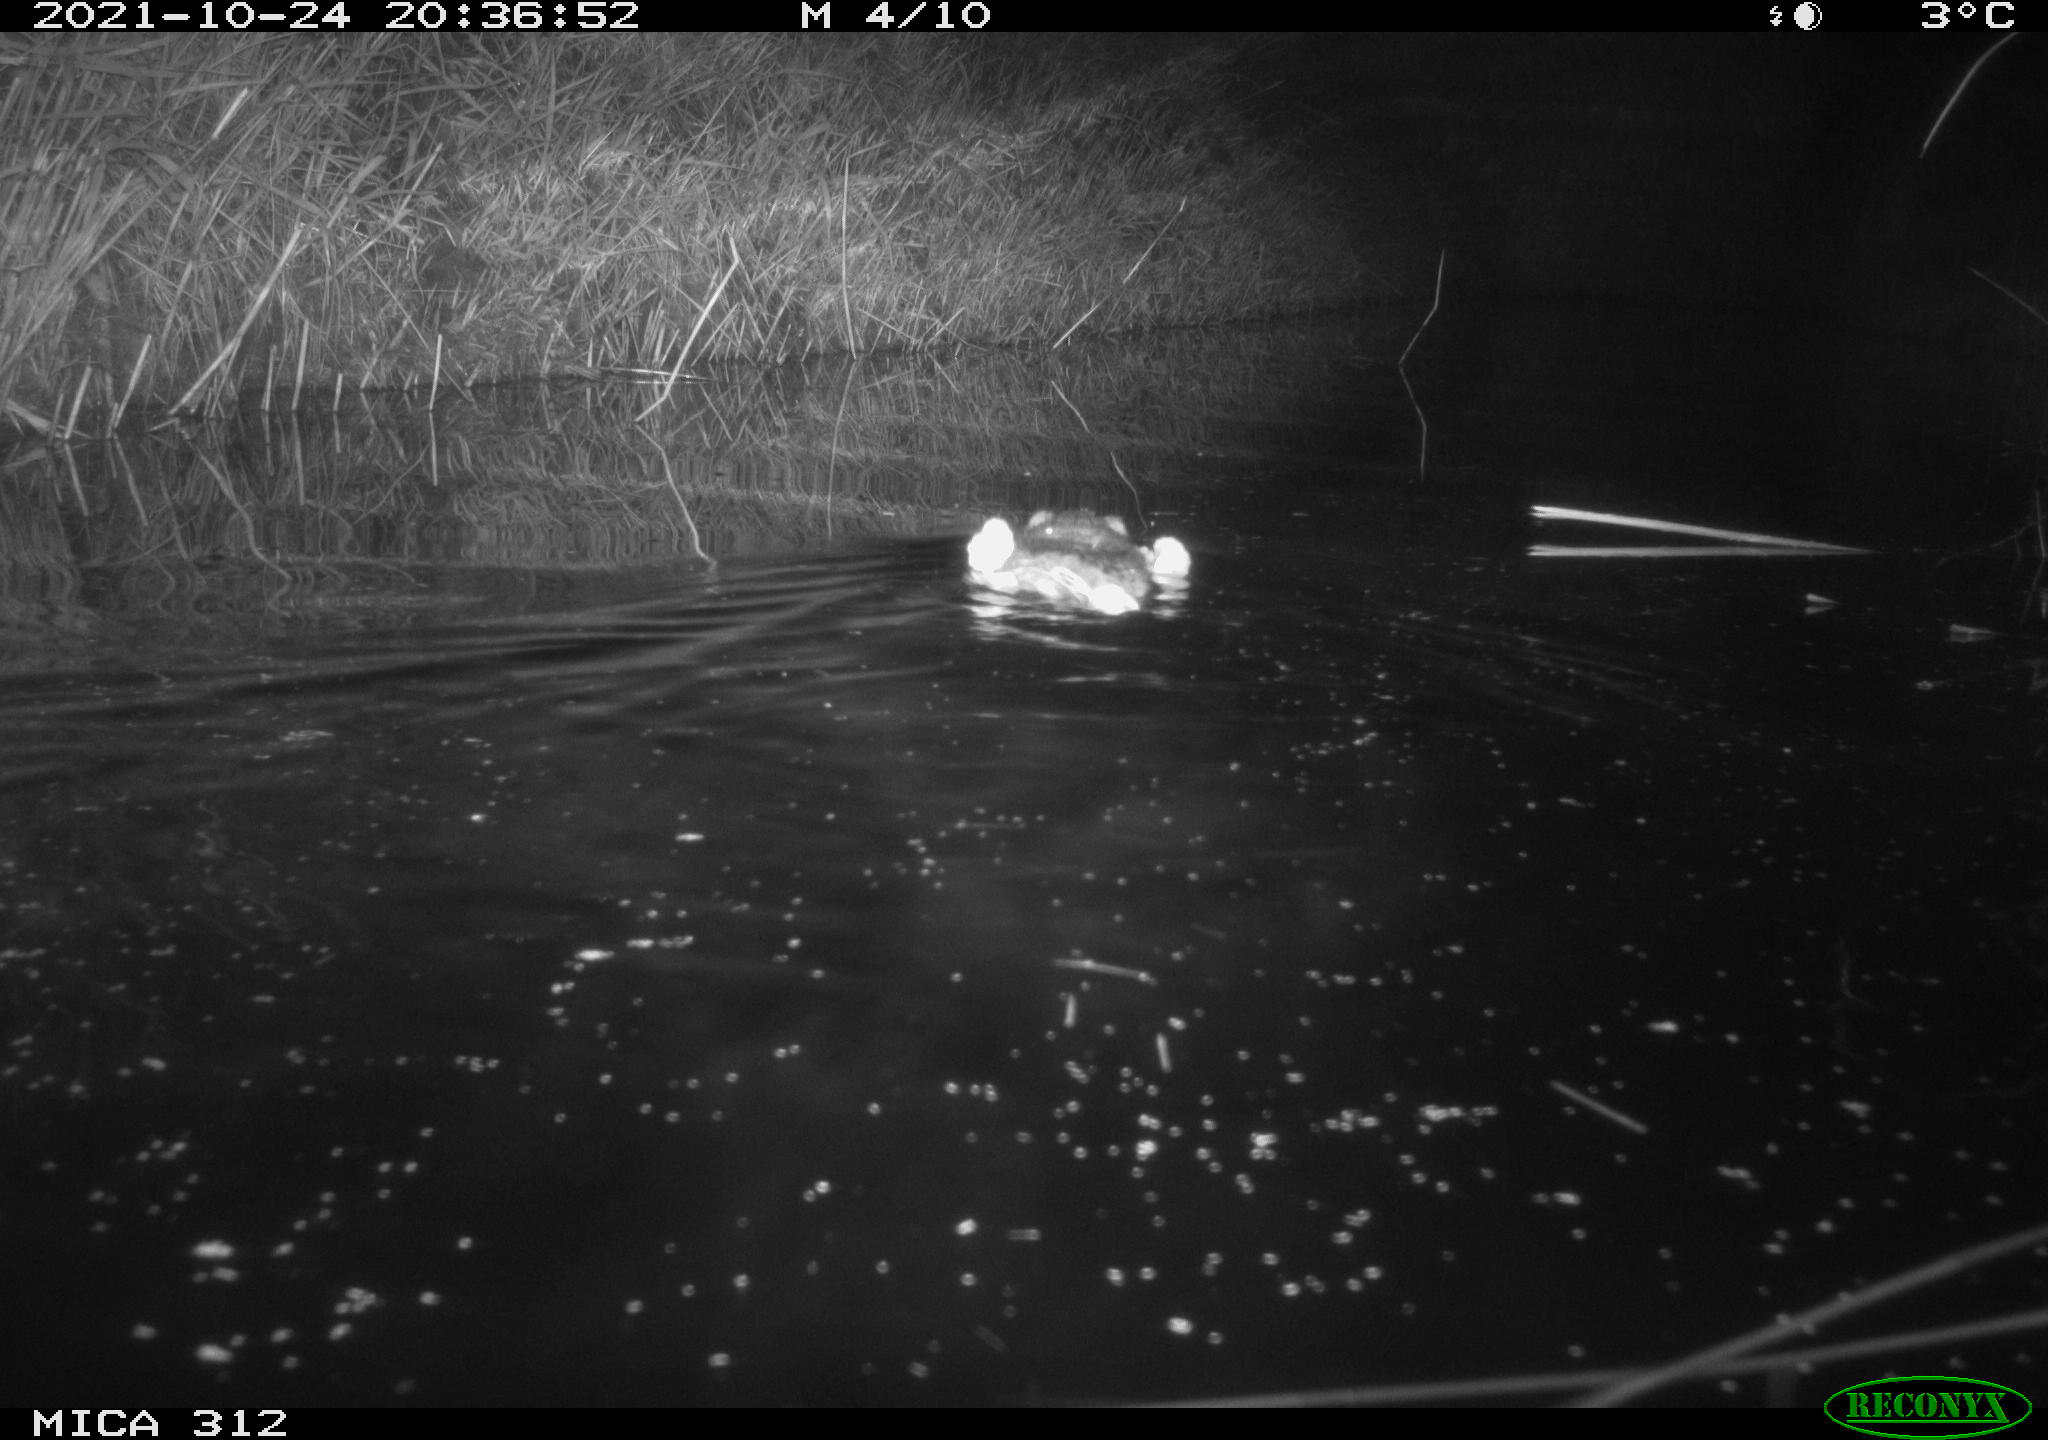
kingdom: Animalia
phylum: Chordata
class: Mammalia
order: Rodentia
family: Muridae
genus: Rattus
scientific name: Rattus norvegicus
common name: Brown rat
